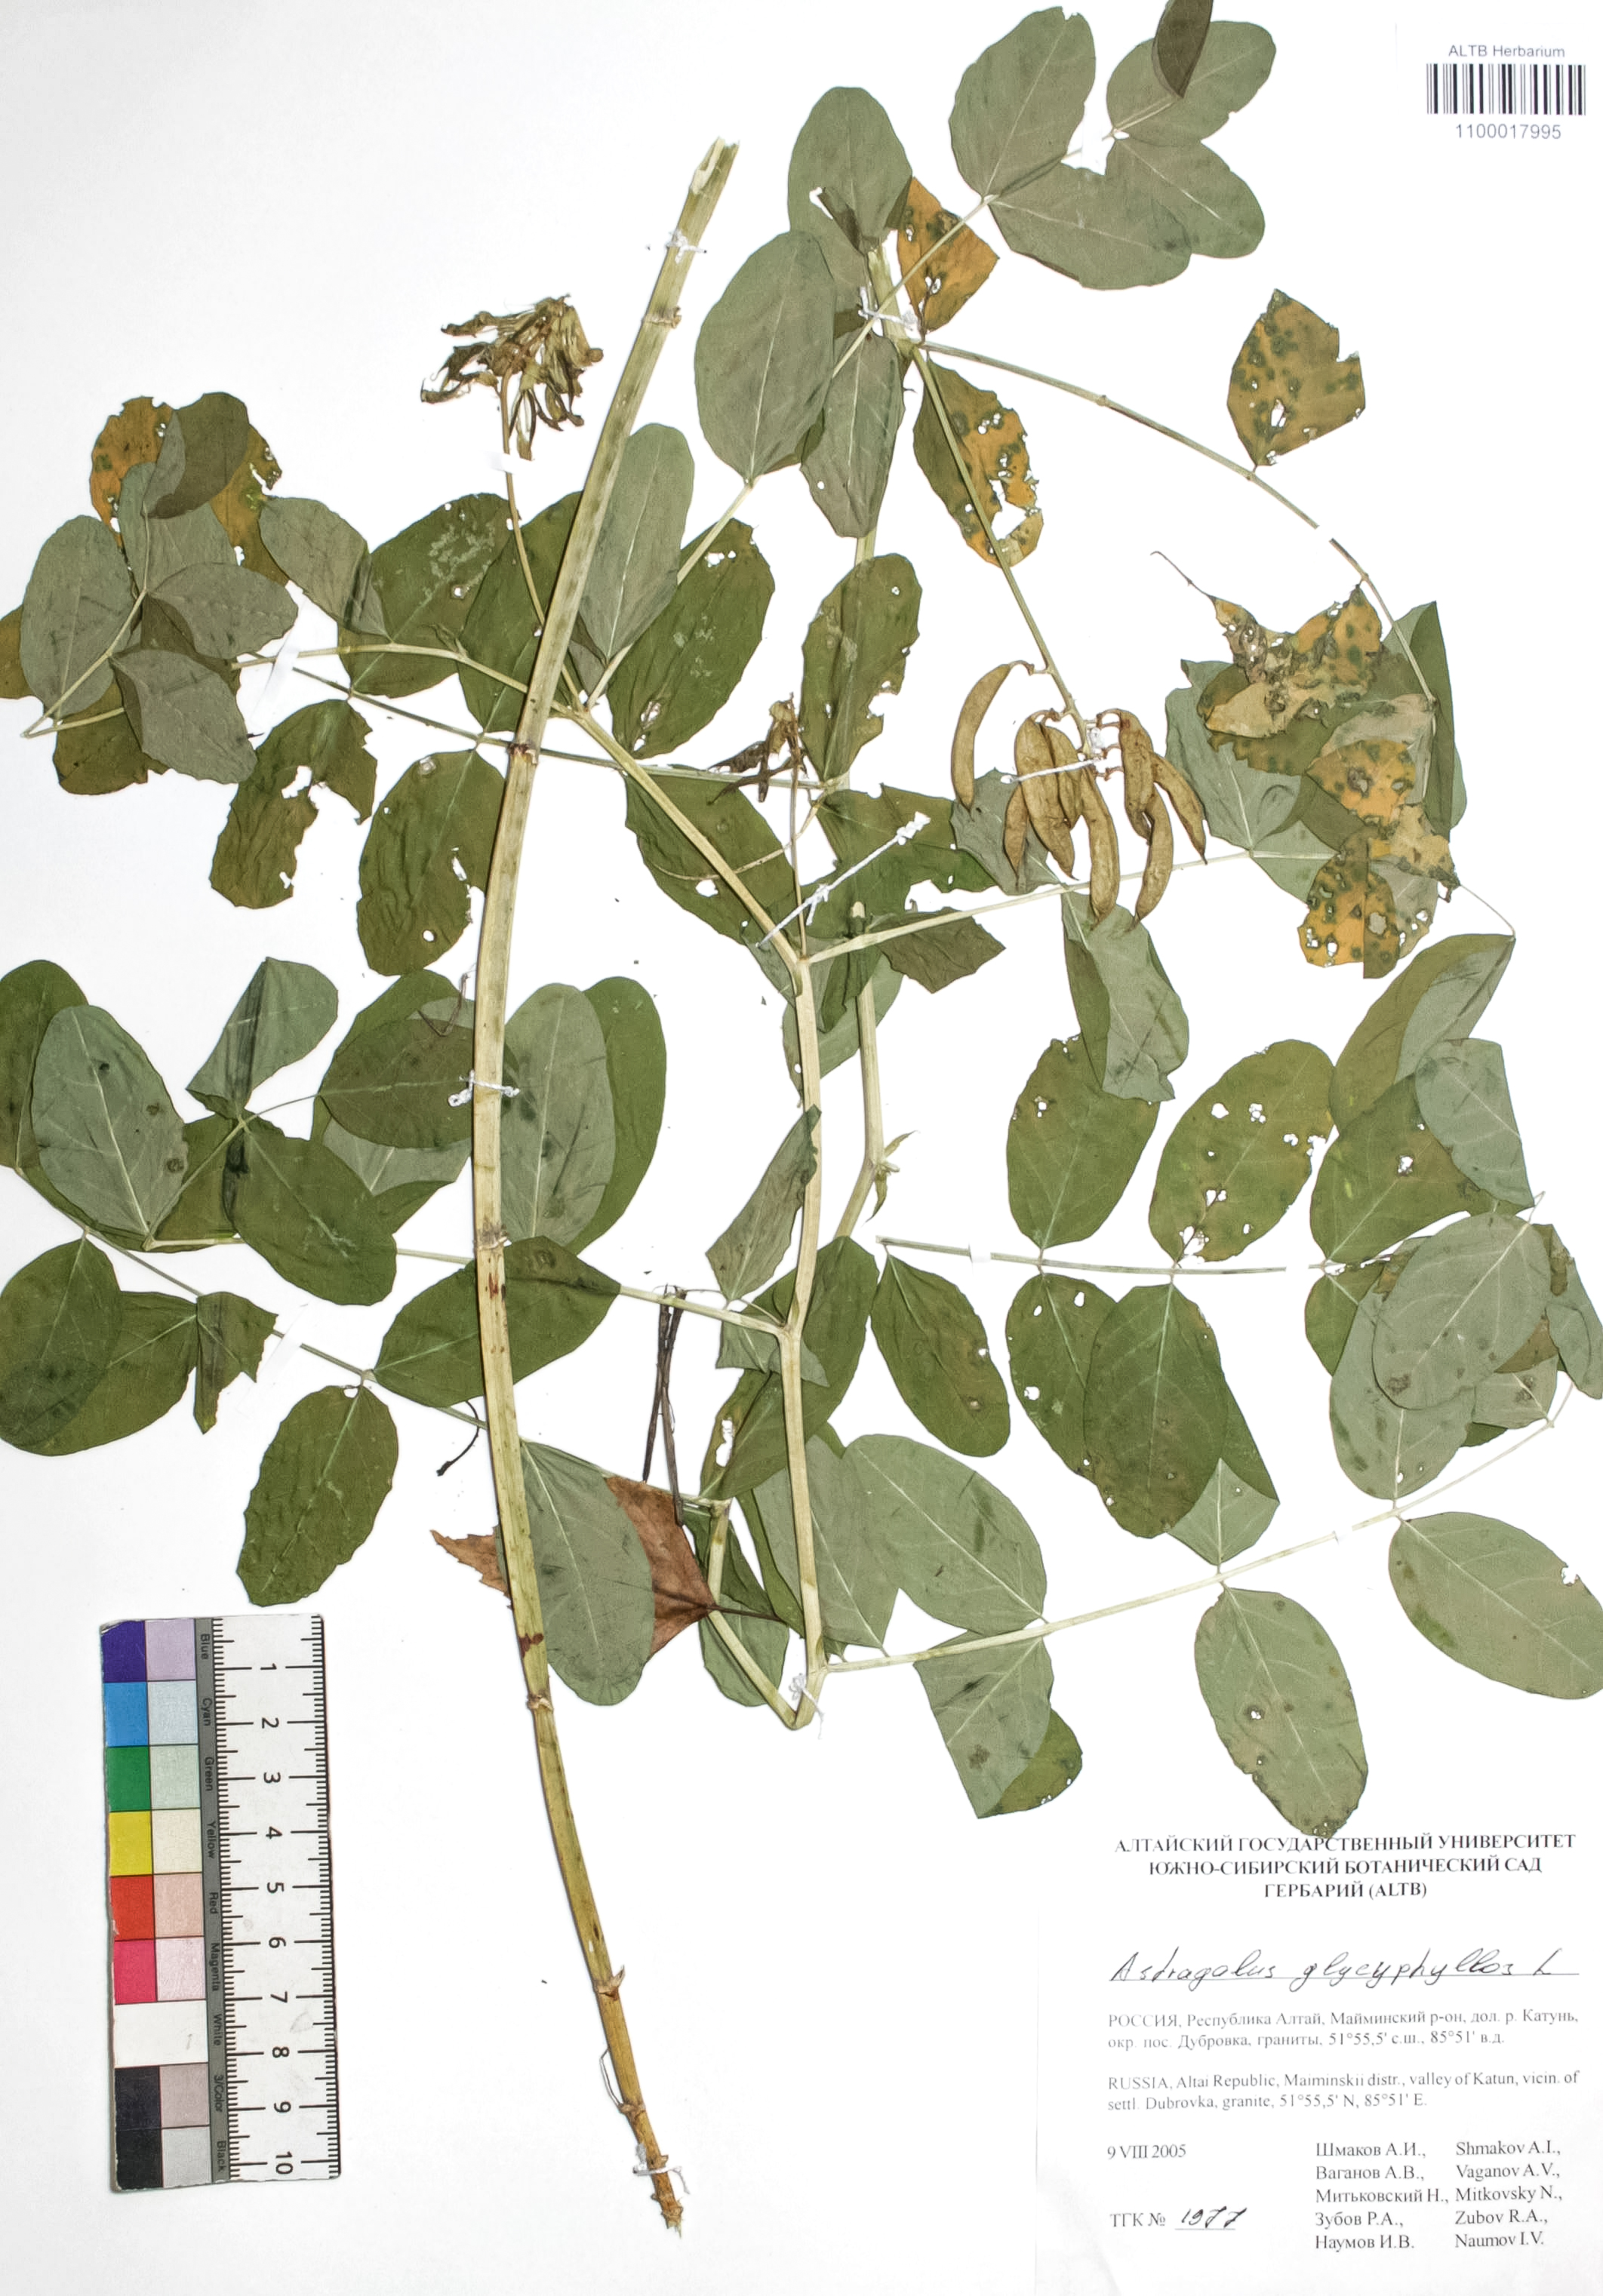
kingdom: Plantae
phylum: Tracheophyta
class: Magnoliopsida
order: Fabales
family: Fabaceae
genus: Astragalus
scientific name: Astragalus glycyphyllos
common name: Wild liquorice
